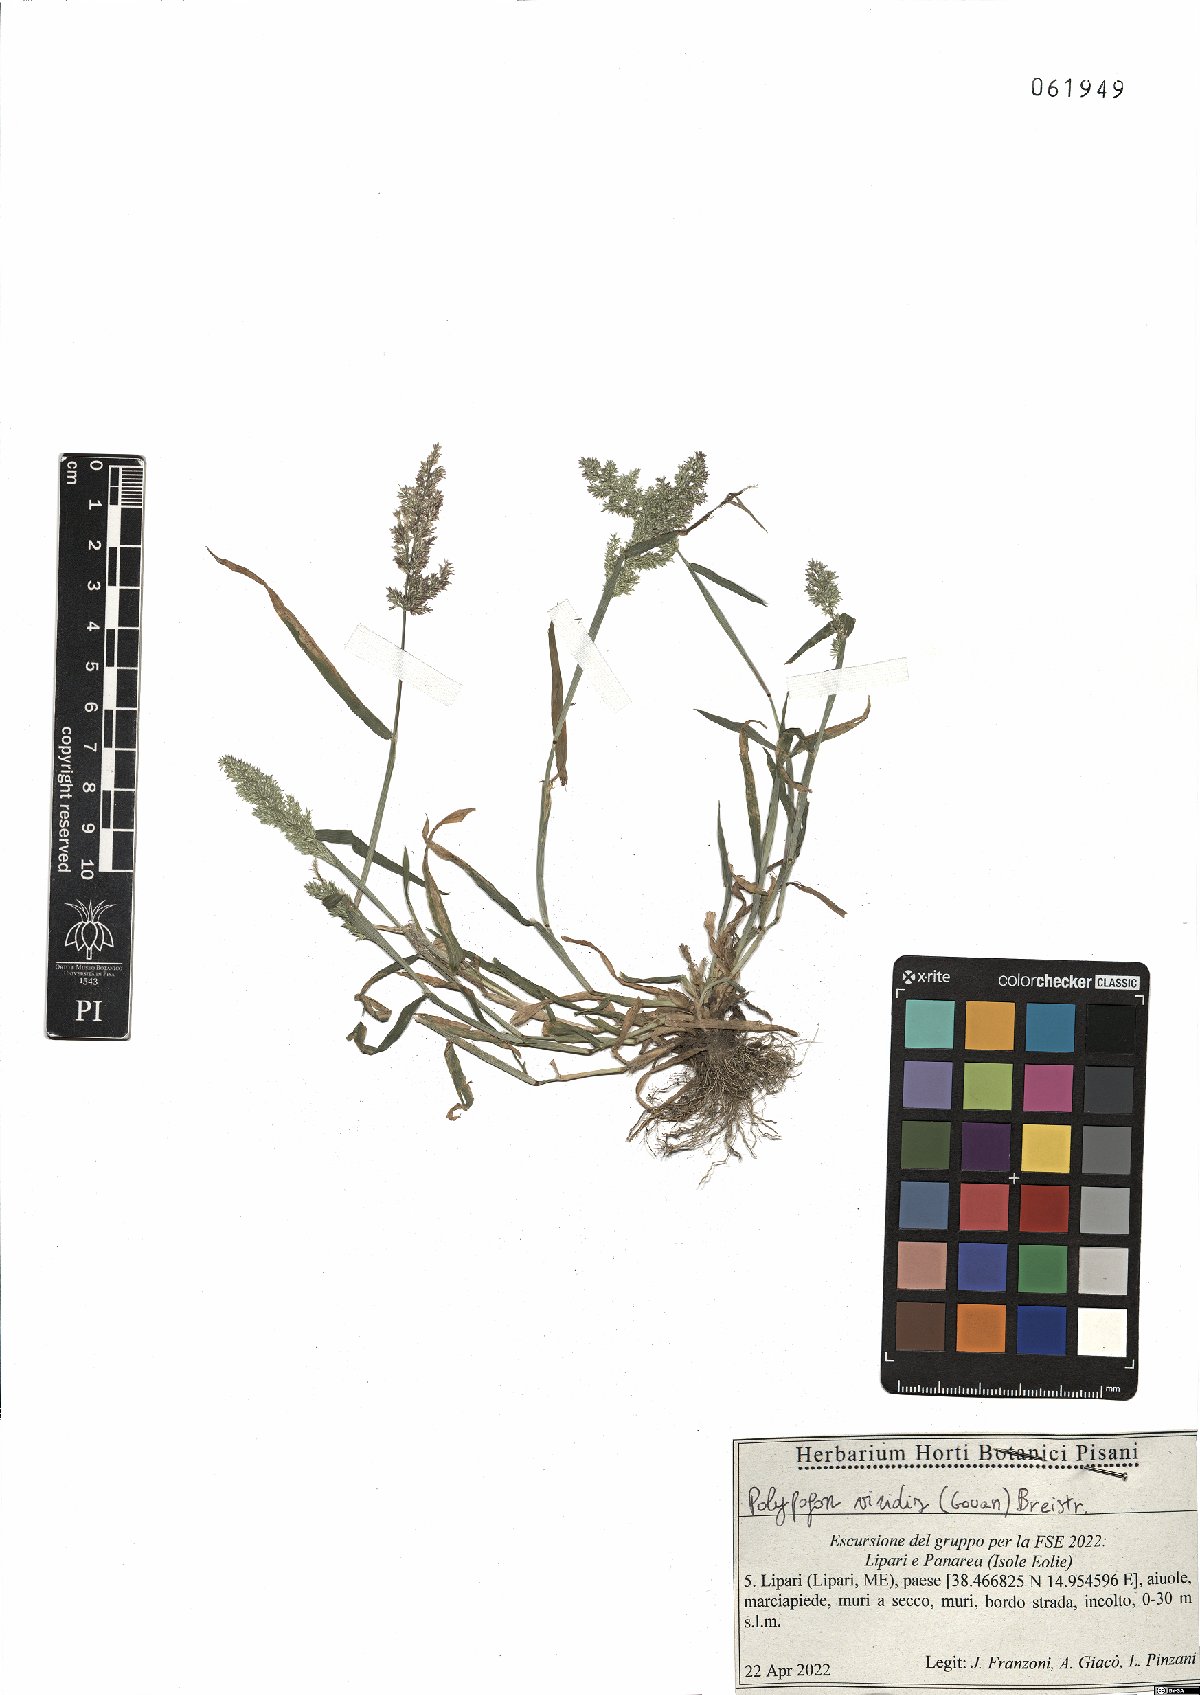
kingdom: Plantae
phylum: Tracheophyta
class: Liliopsida
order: Poales
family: Poaceae
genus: Polypogon
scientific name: Polypogon viridis
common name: Water bent
